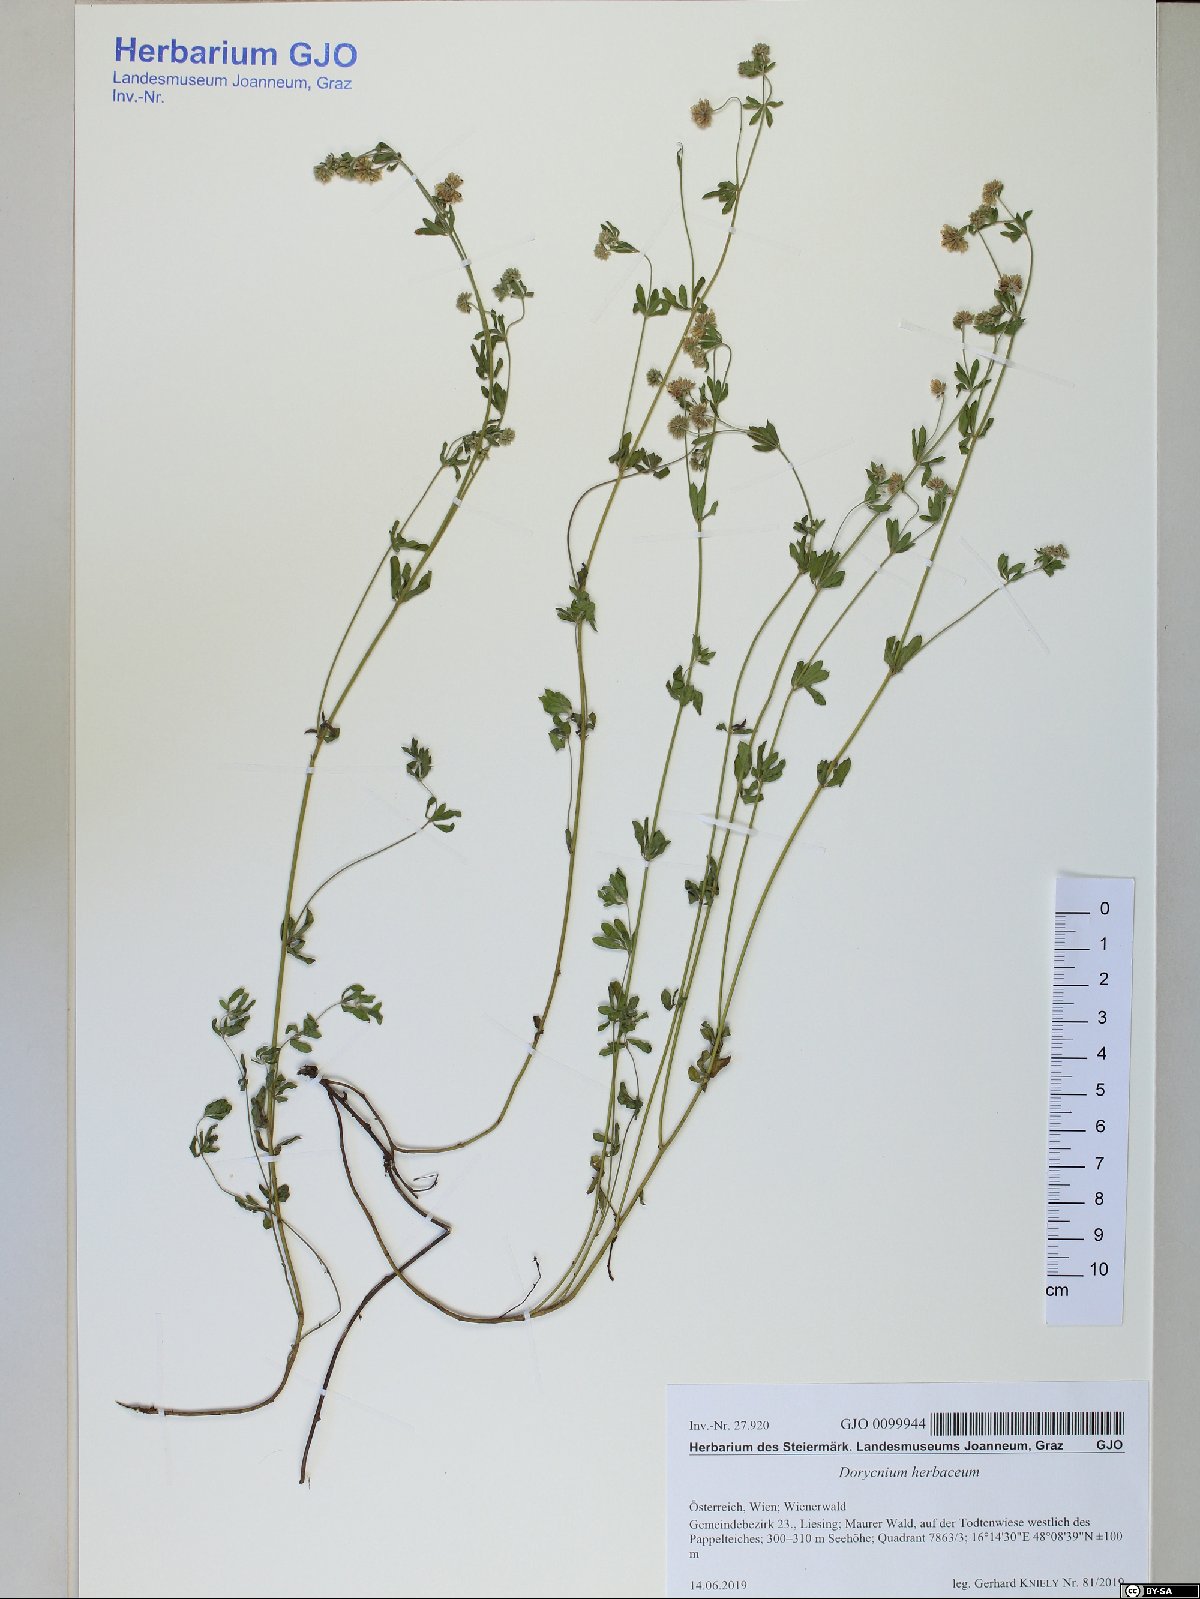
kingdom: Plantae
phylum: Tracheophyta
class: Magnoliopsida
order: Fabales
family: Fabaceae
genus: Lotus
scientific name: Lotus herbaceus
